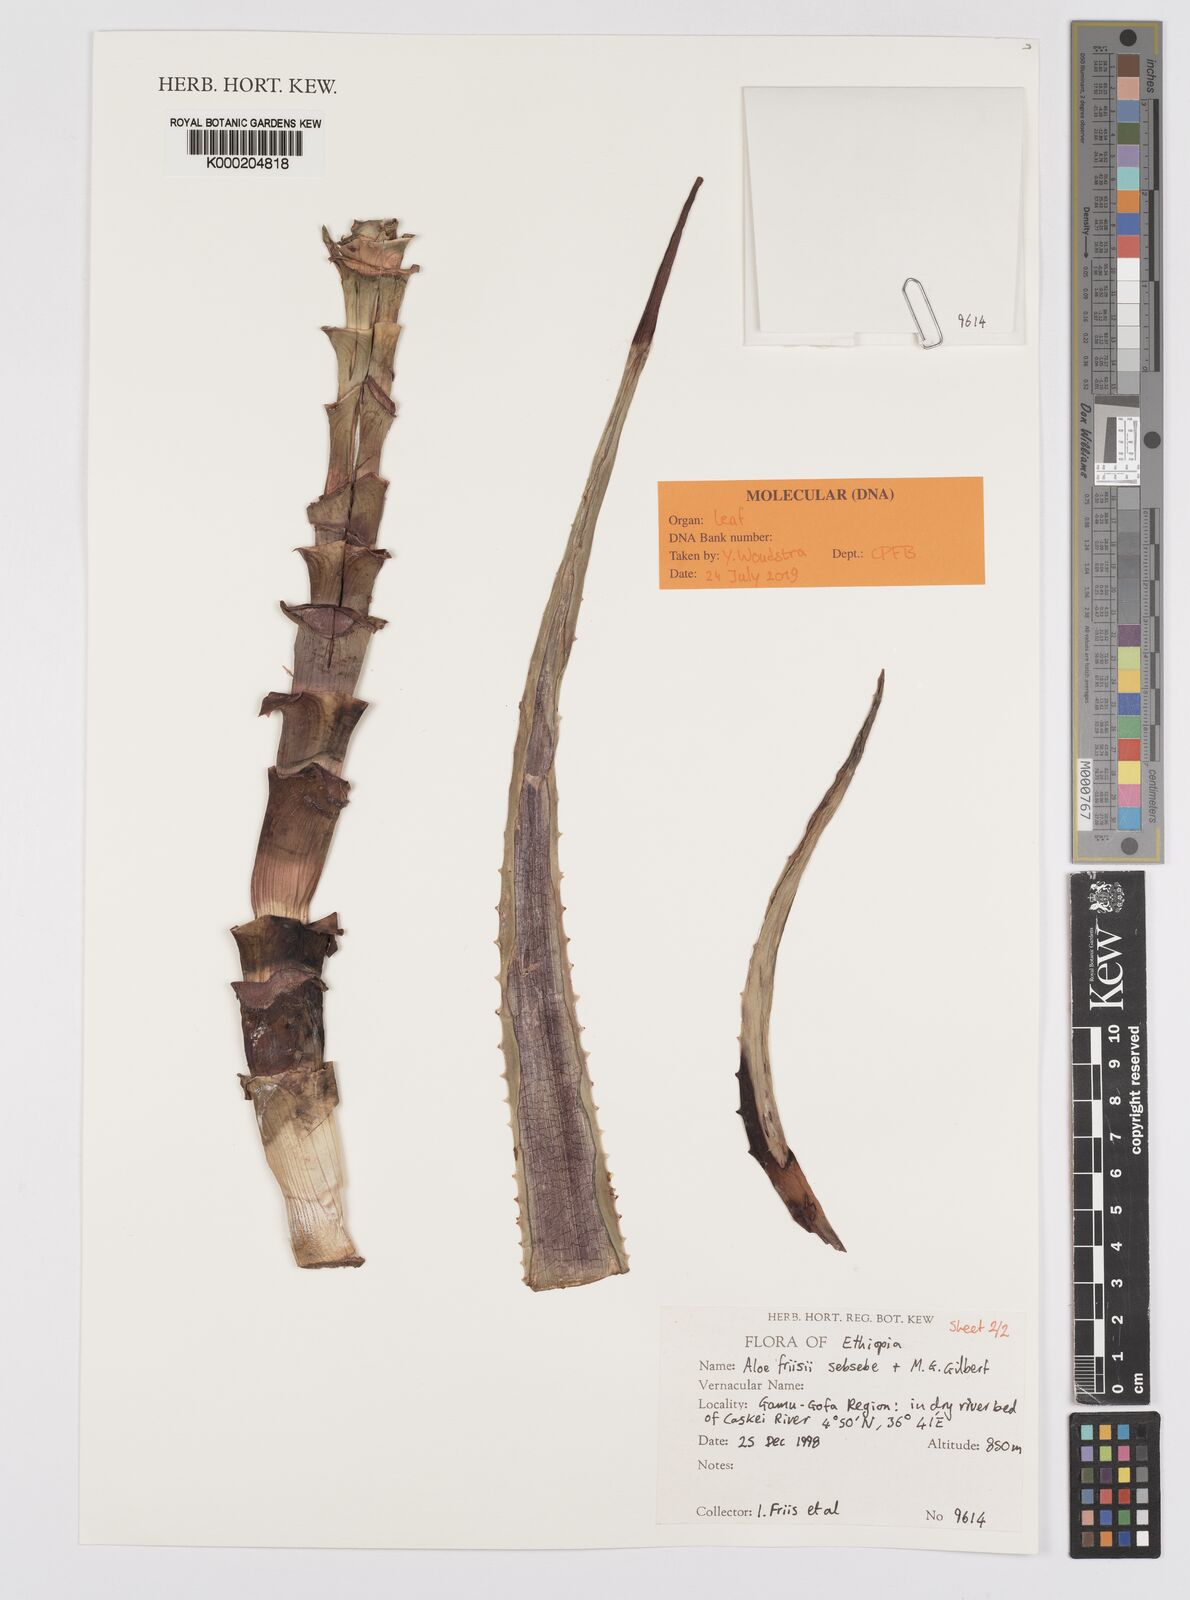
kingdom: Plantae
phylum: Tracheophyta
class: Liliopsida
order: Asparagales
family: Asphodelaceae
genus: Aloe
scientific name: Aloe friisii
